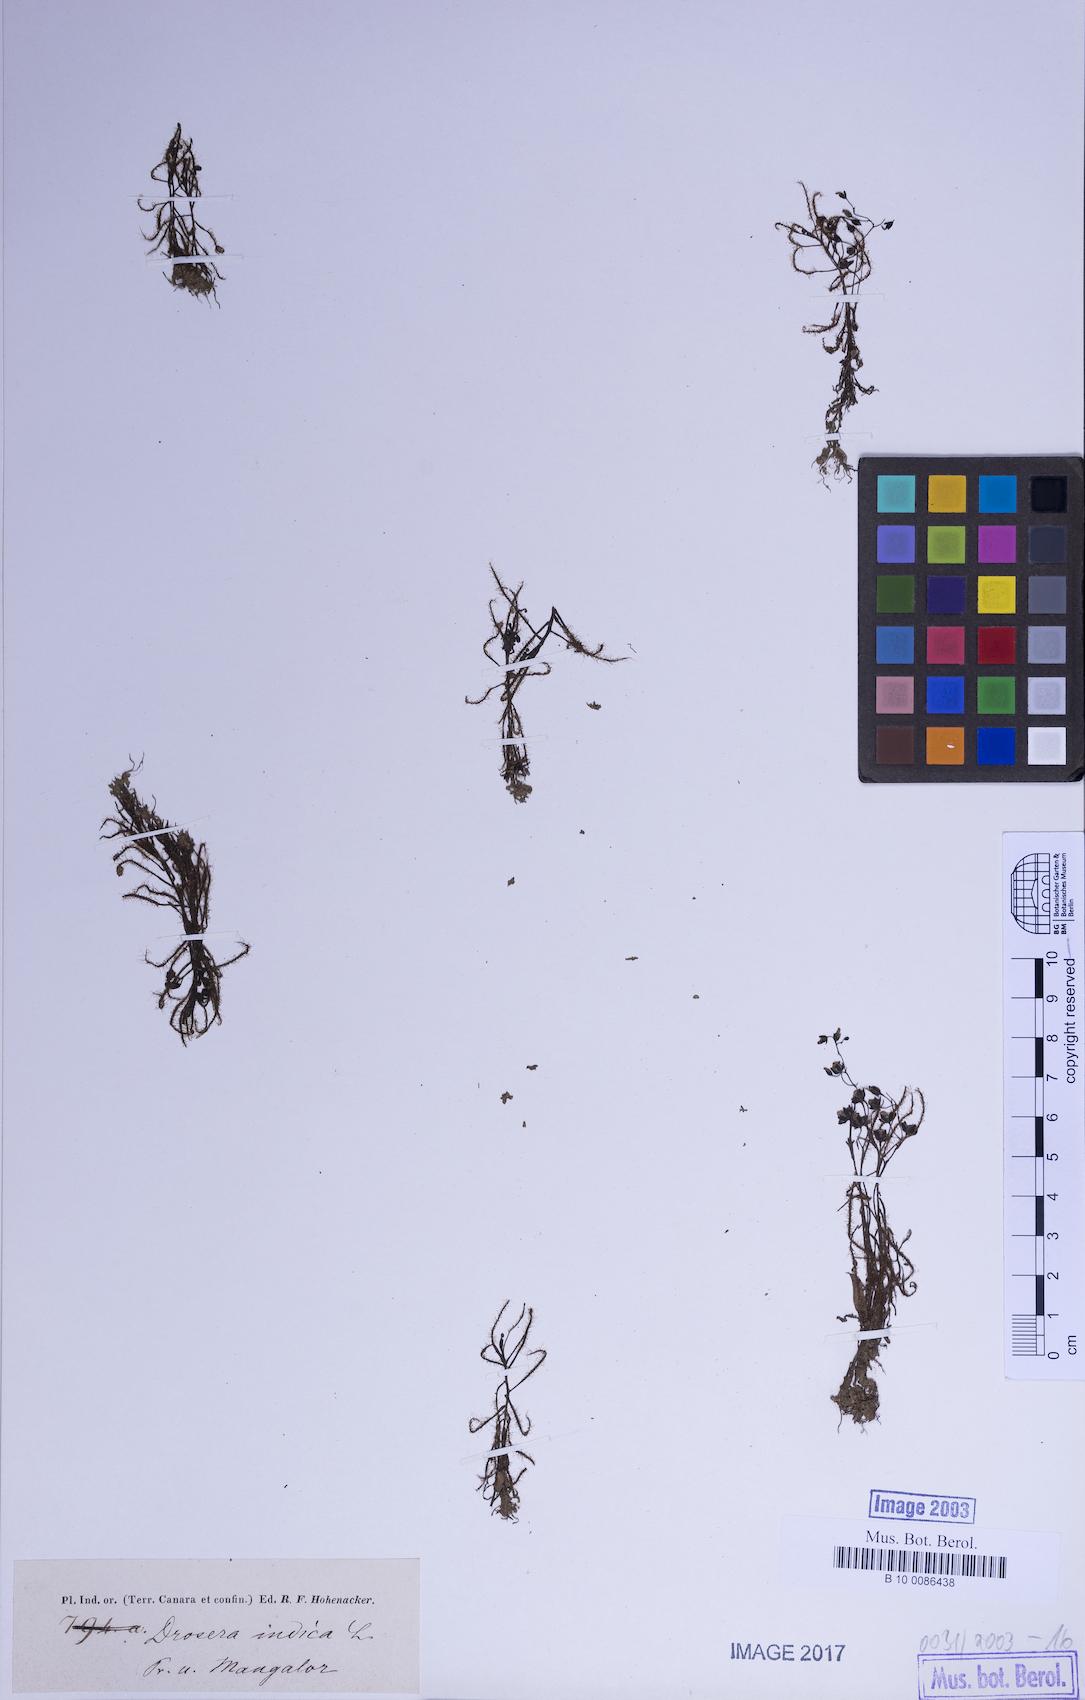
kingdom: Plantae
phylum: Tracheophyta
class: Magnoliopsida
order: Caryophyllales
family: Droseraceae
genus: Drosera
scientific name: Drosera indica
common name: Indian sundew
